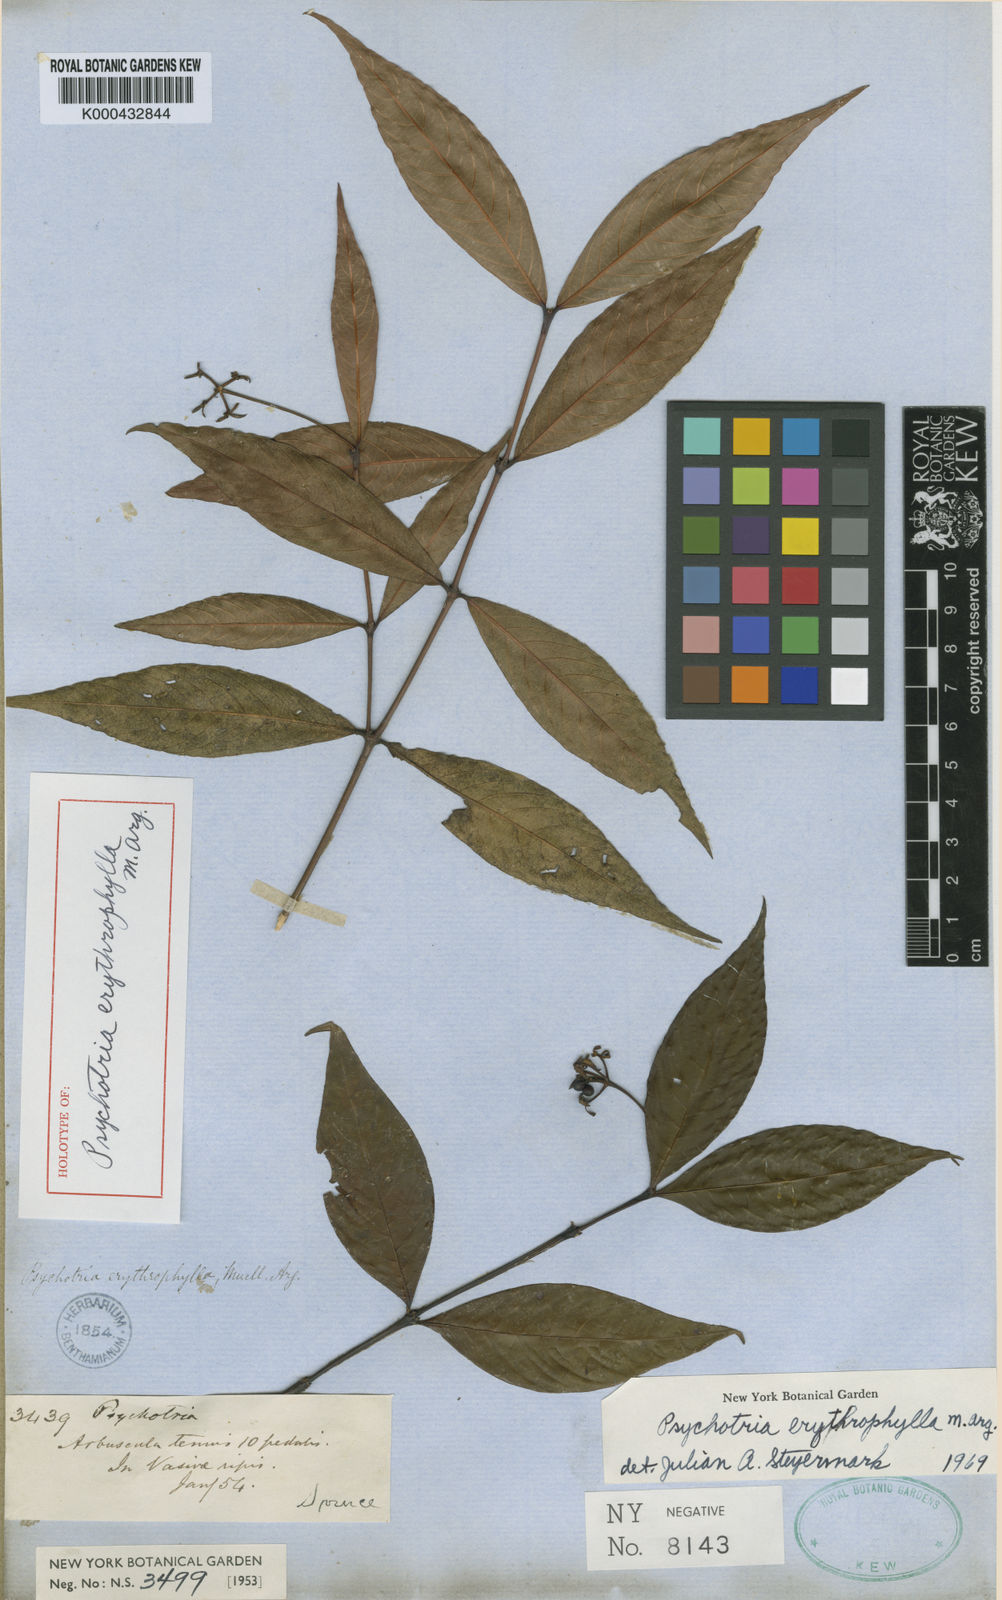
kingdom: Plantae
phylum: Tracheophyta
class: Magnoliopsida
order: Gentianales
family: Rubiaceae
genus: Psychotria
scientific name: Psychotria
